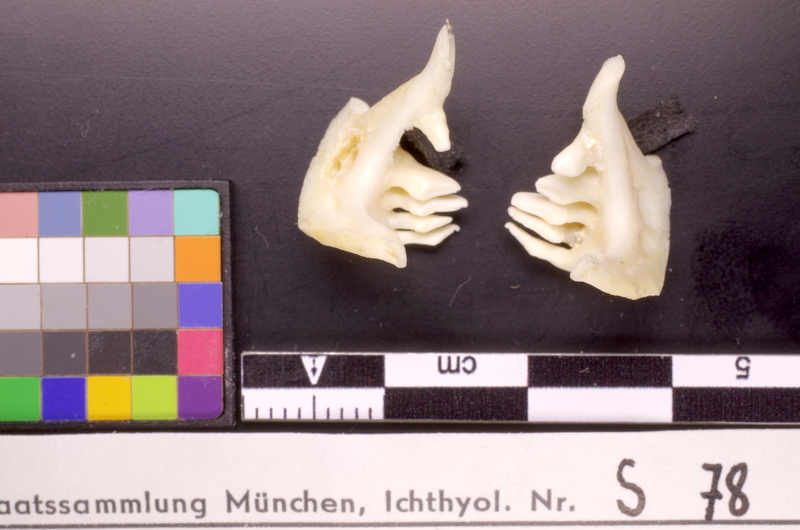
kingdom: Animalia
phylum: Chordata
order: Cypriniformes
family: Cyprinidae
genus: Rutilus
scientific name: Rutilus rutilus
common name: Roach
